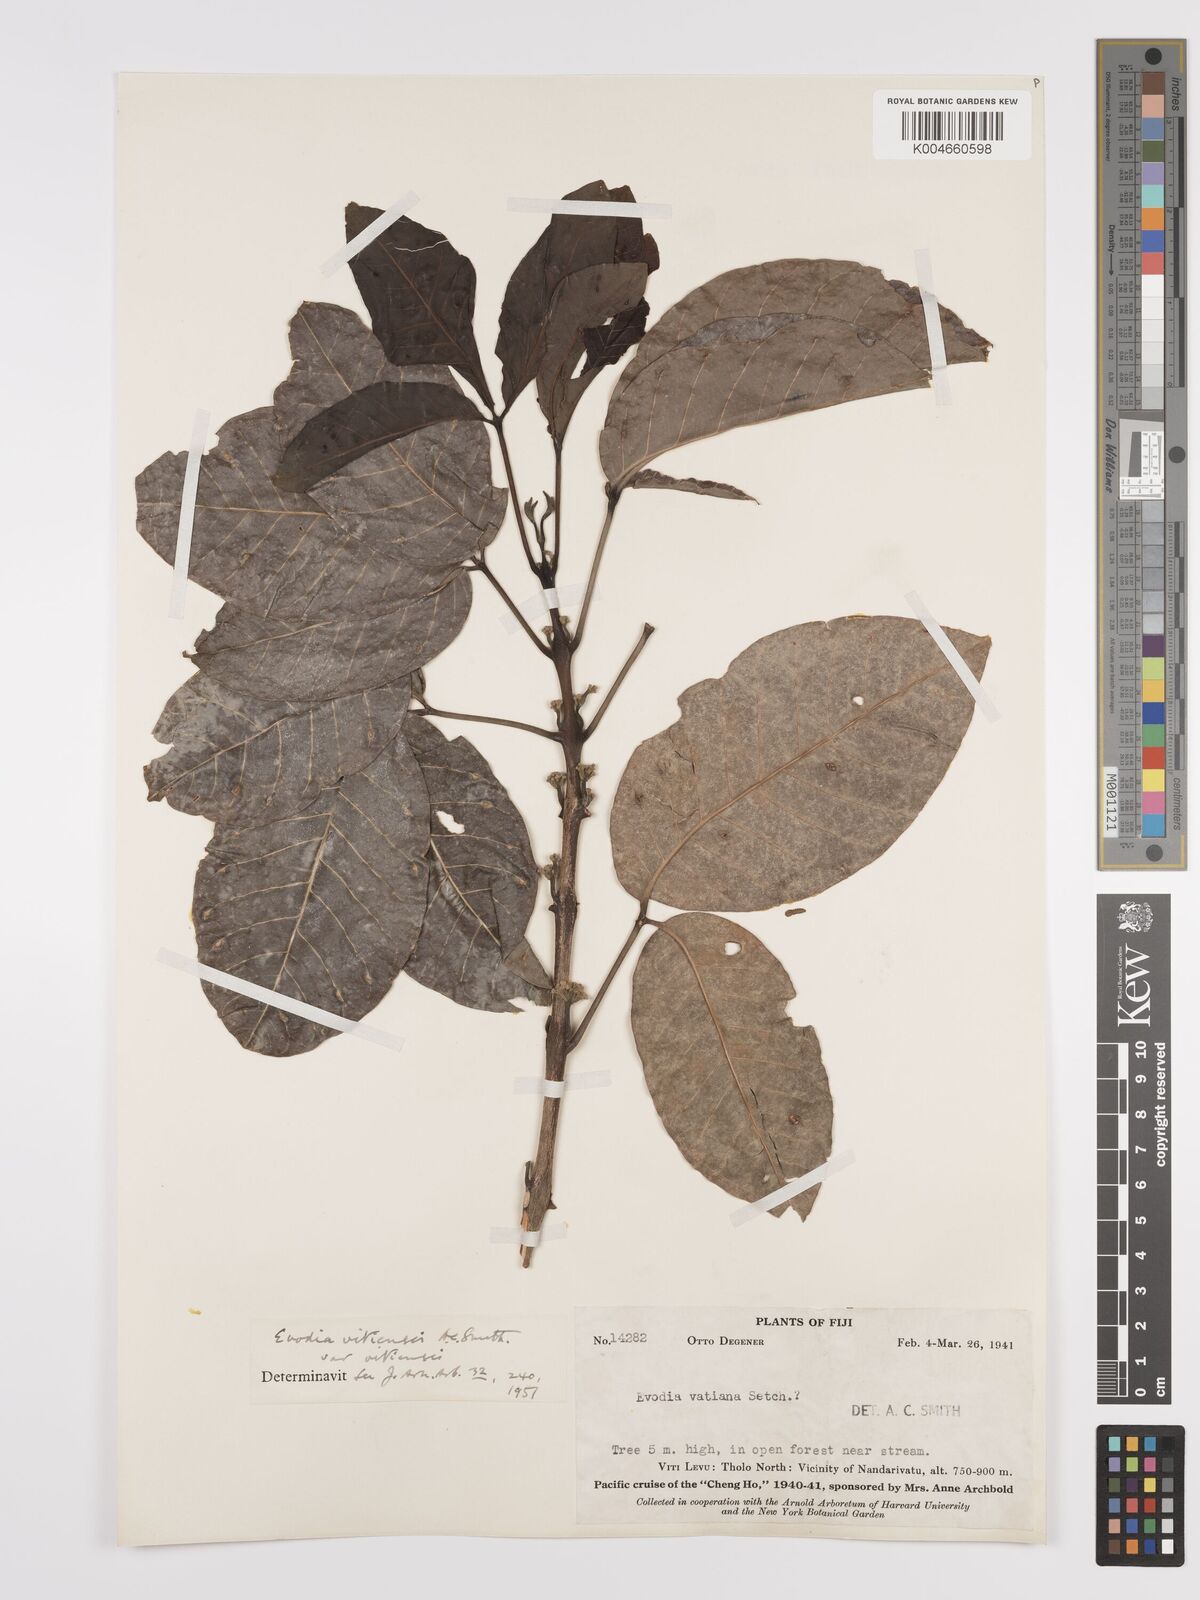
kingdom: Plantae
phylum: Tracheophyta
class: Magnoliopsida
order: Sapindales
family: Rutaceae
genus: Melicope
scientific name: Melicope cucullata
